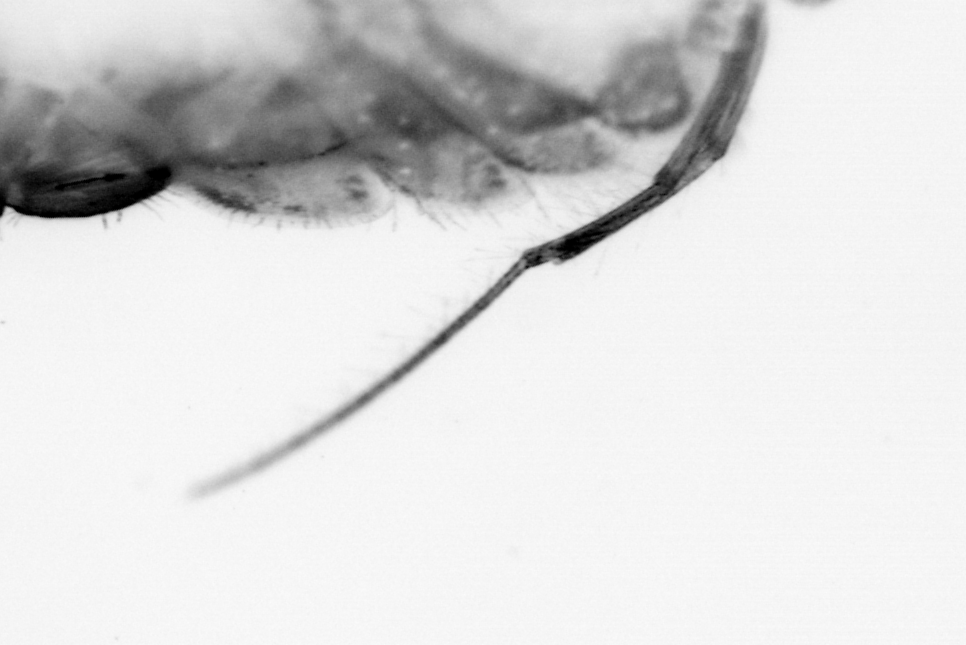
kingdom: Animalia
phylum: Annelida
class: Polychaeta
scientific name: Polychaeta
